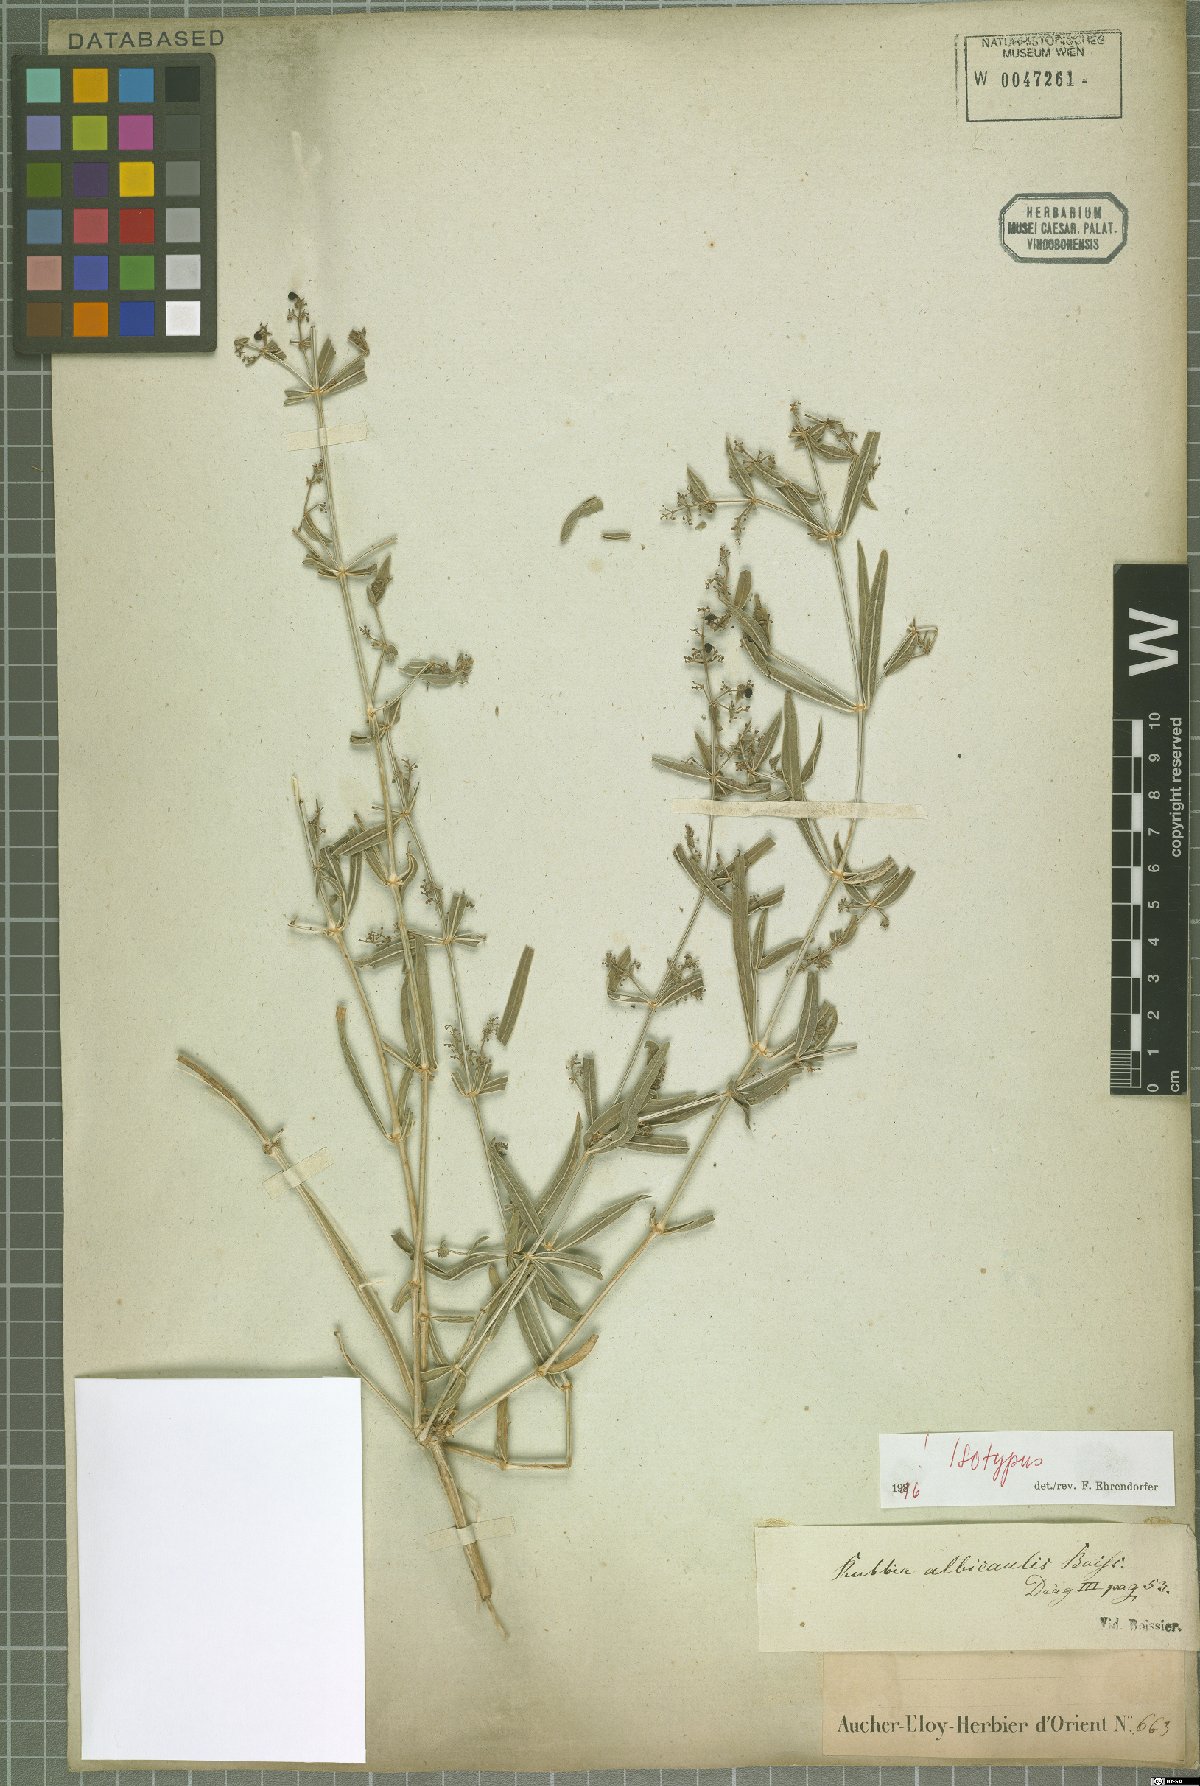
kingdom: Plantae
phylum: Tracheophyta
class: Magnoliopsida
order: Gentianales
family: Rubiaceae
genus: Rubia
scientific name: Rubia albicaulis
